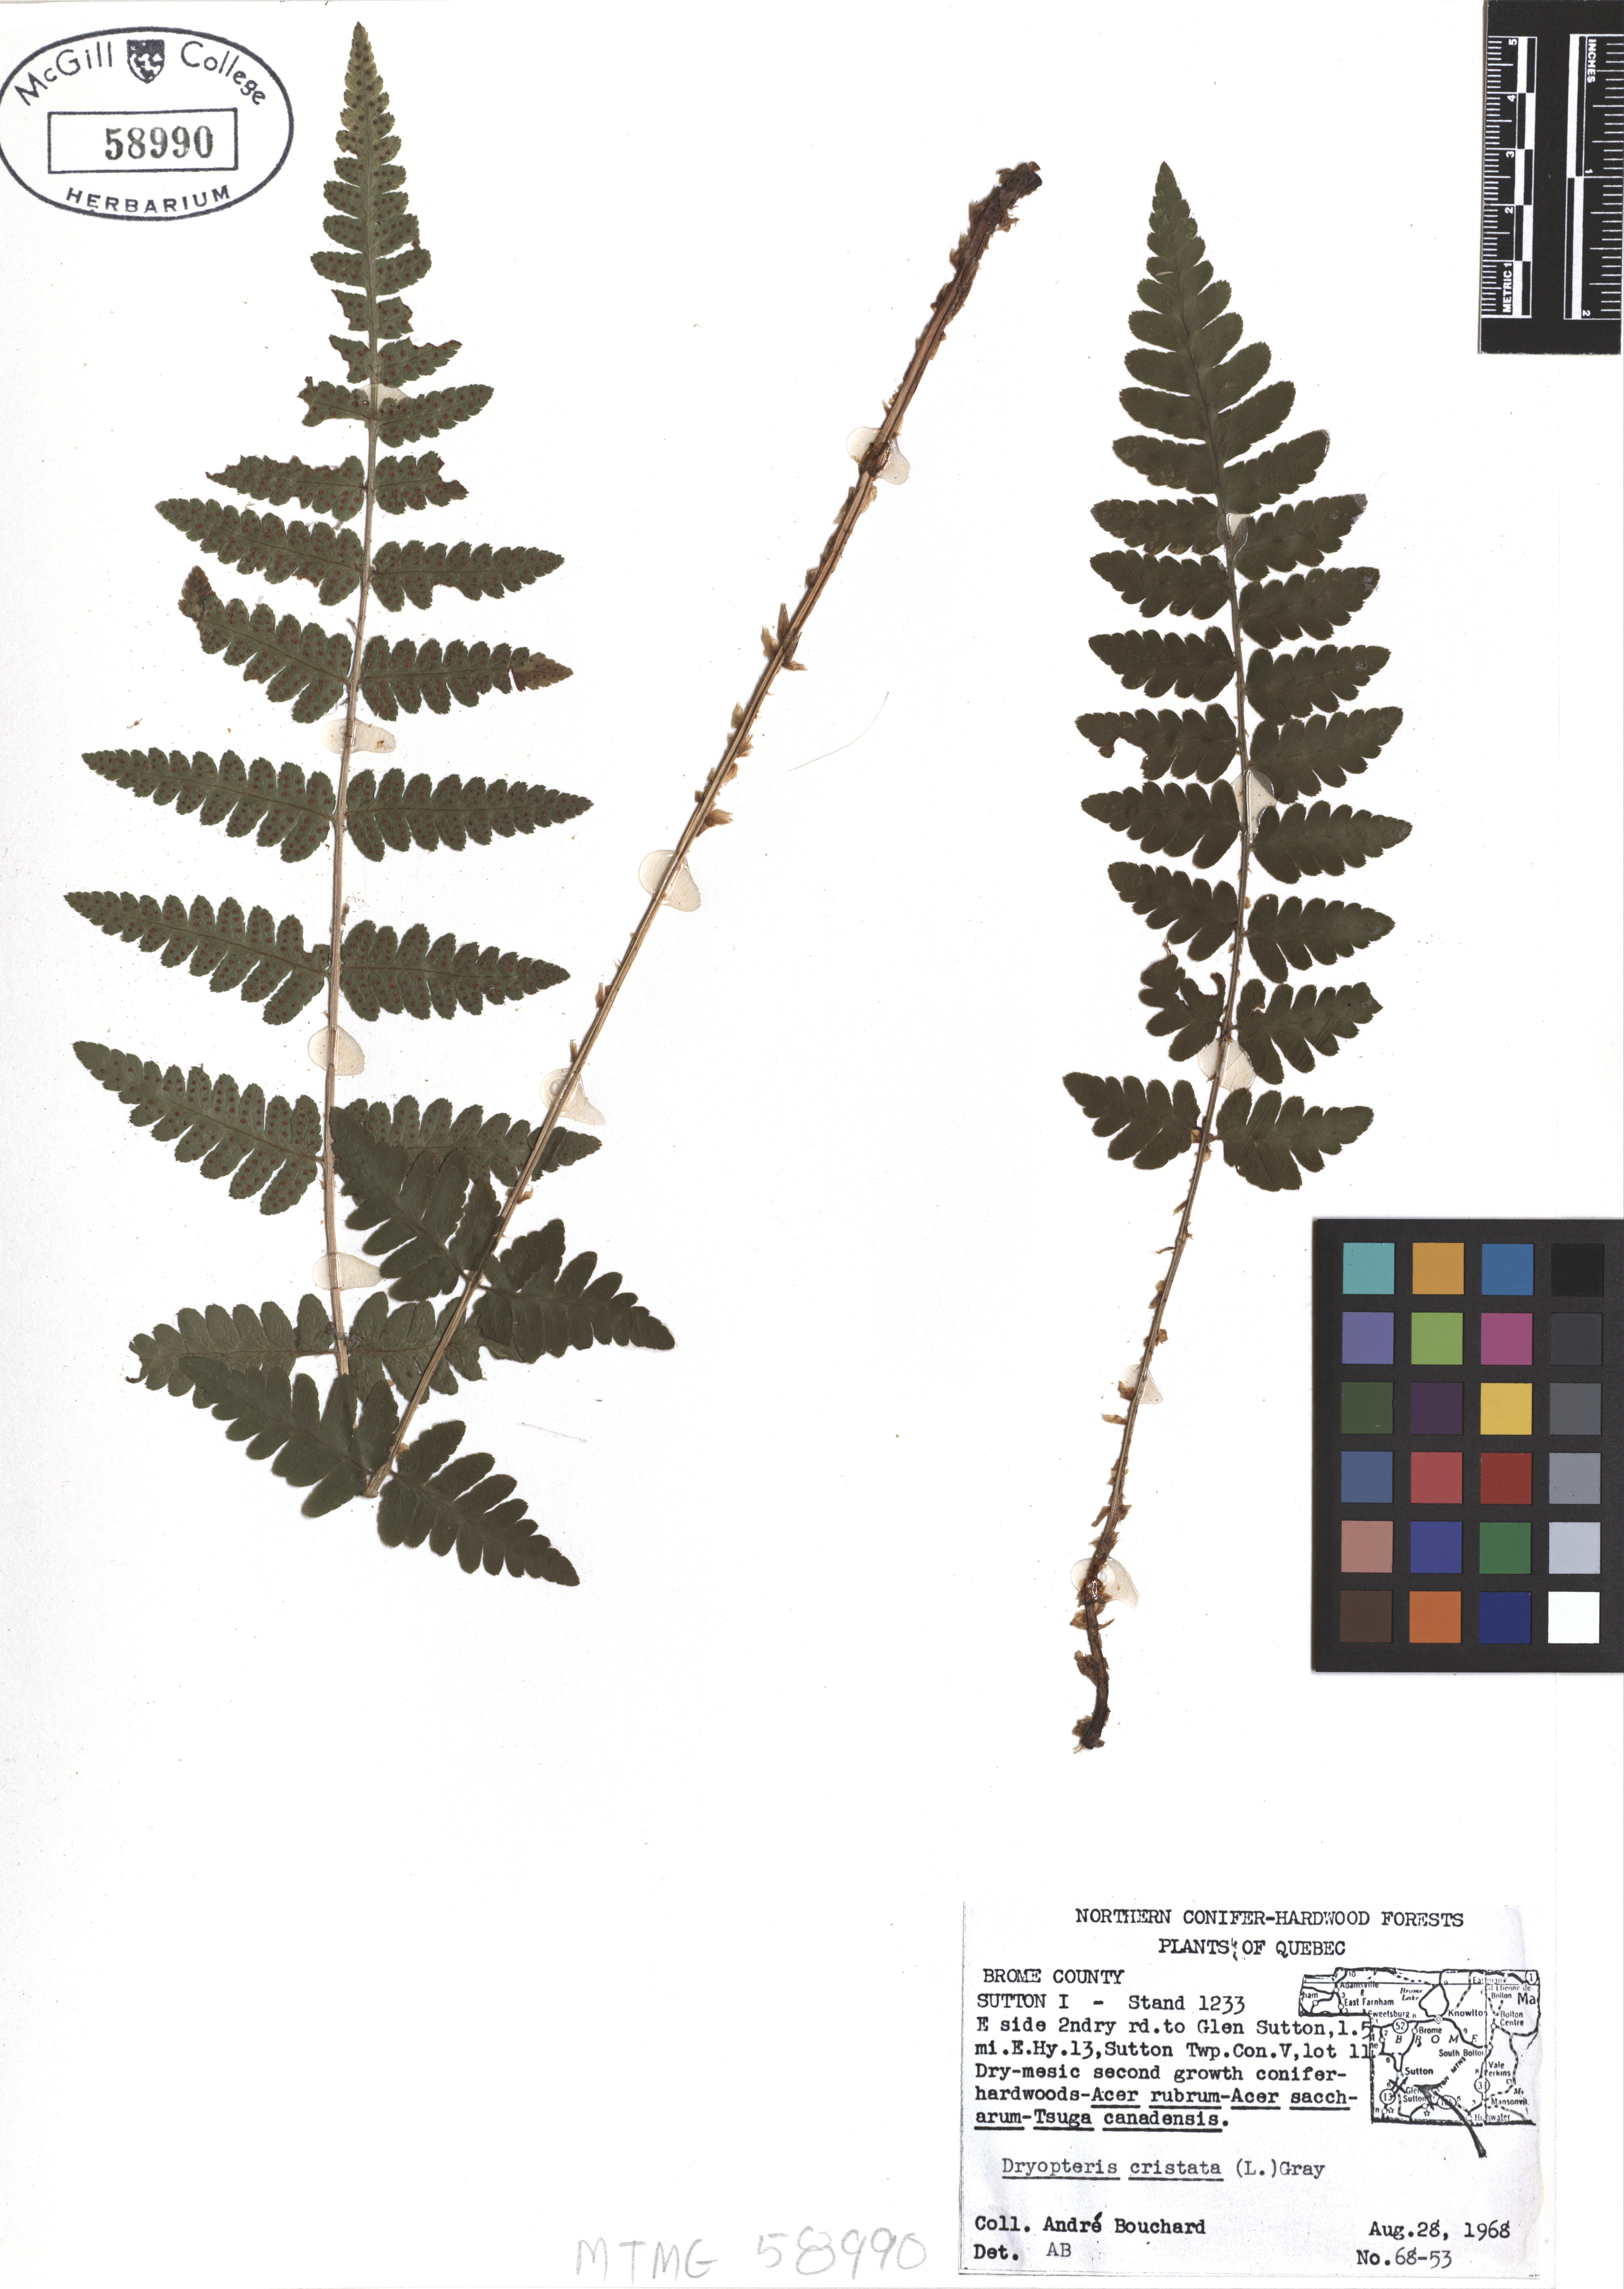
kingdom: Plantae
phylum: Tracheophyta
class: Polypodiopsida
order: Polypodiales
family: Dryopteridaceae
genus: Dryopteris
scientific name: Dryopteris cristata
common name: Crested wood fern
